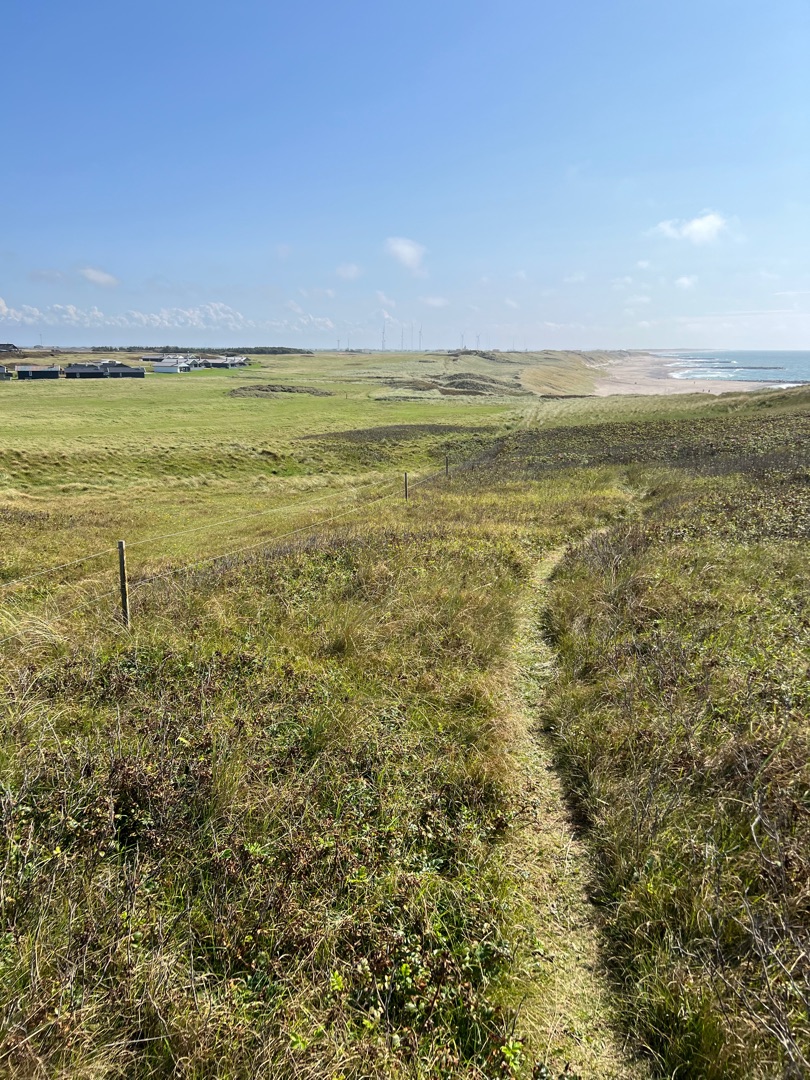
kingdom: Animalia
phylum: Chordata
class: Squamata
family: Anguidae
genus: Anguis
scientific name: Anguis fragilis
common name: Stålorm
